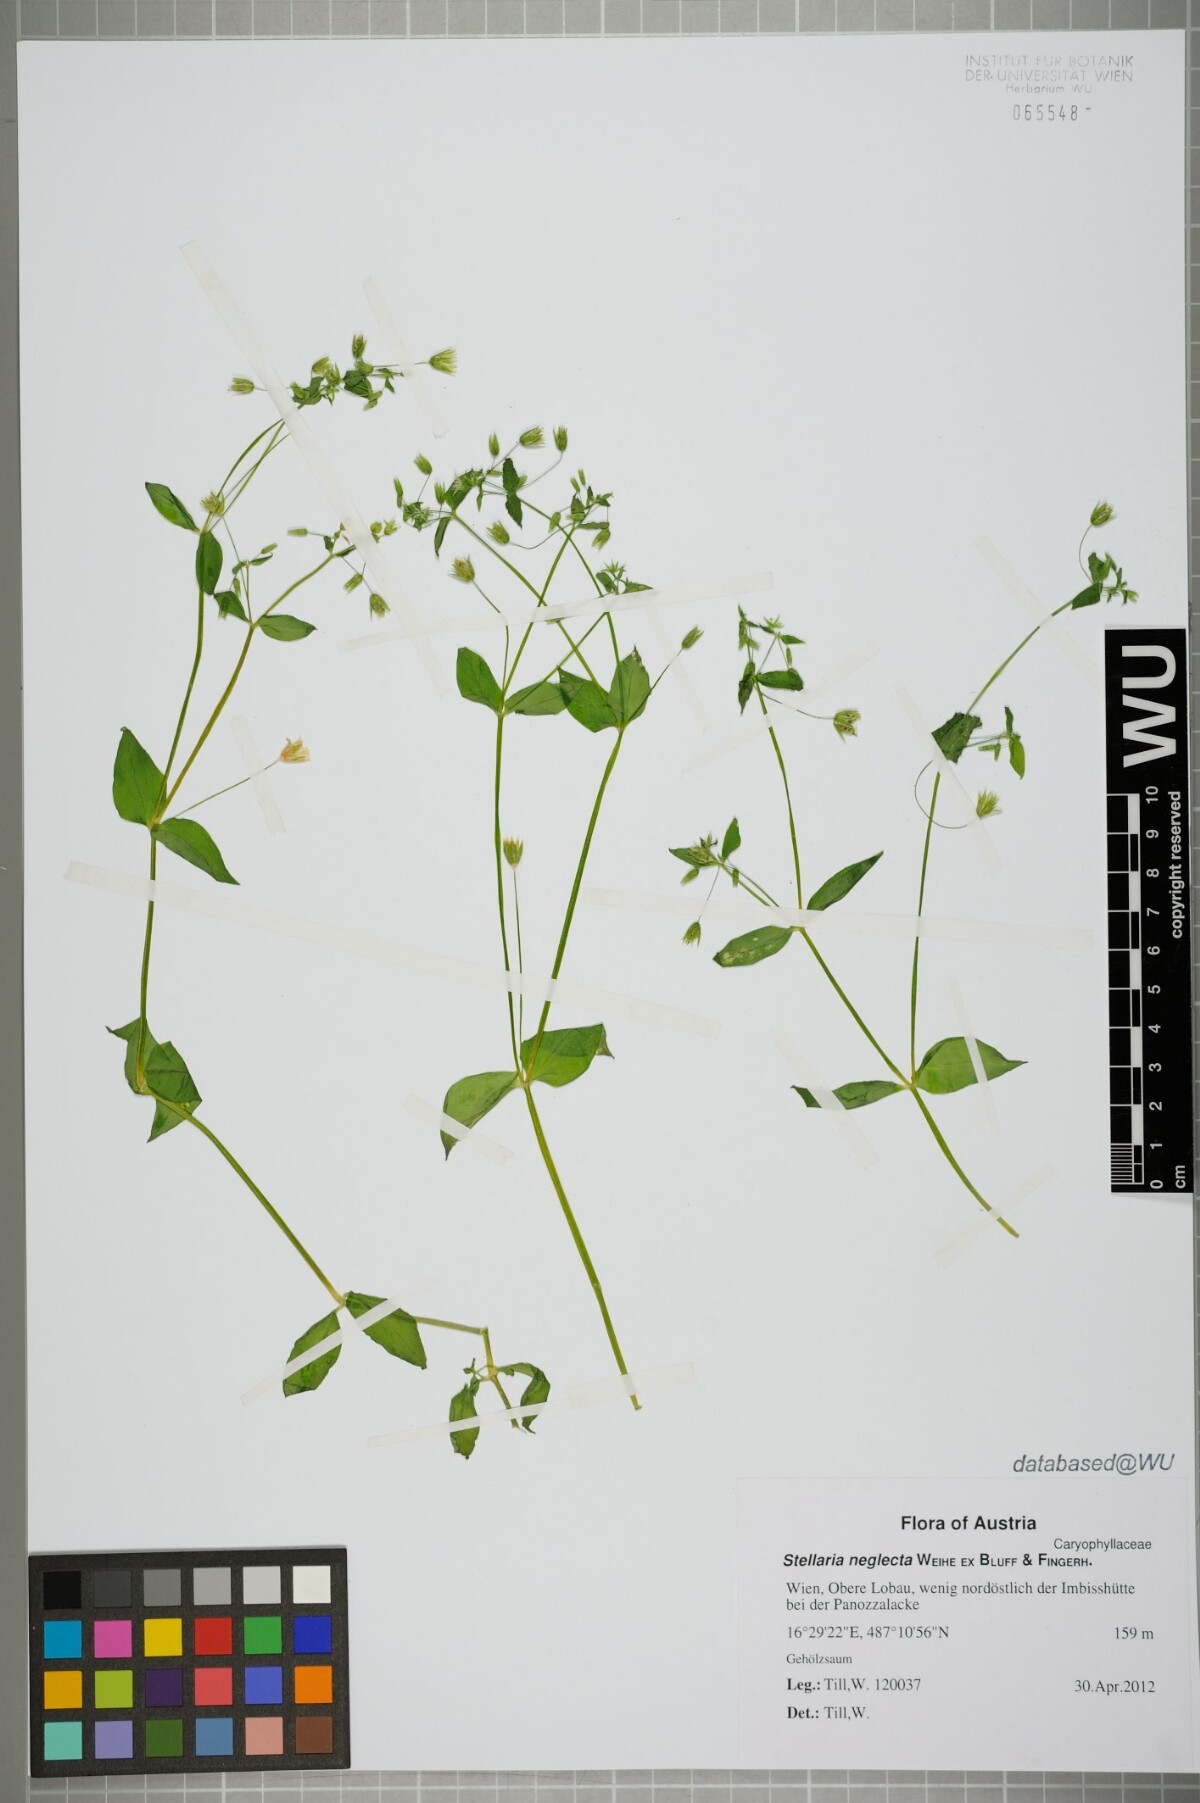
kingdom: Plantae
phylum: Tracheophyta
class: Magnoliopsida
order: Caryophyllales
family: Caryophyllaceae
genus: Stellaria
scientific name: Stellaria neglecta
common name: Greater chickweed
